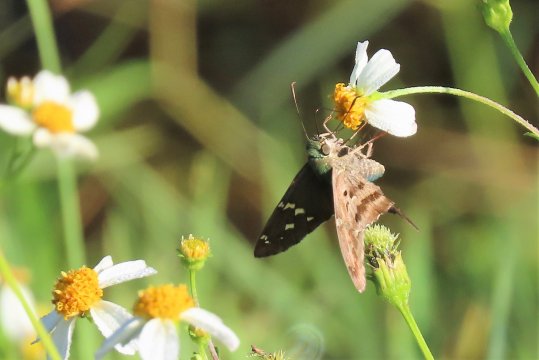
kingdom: Animalia
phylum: Arthropoda
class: Insecta
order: Lepidoptera
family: Hesperiidae
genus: Urbanus
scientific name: Urbanus proteus
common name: Long-tailed Skipper
